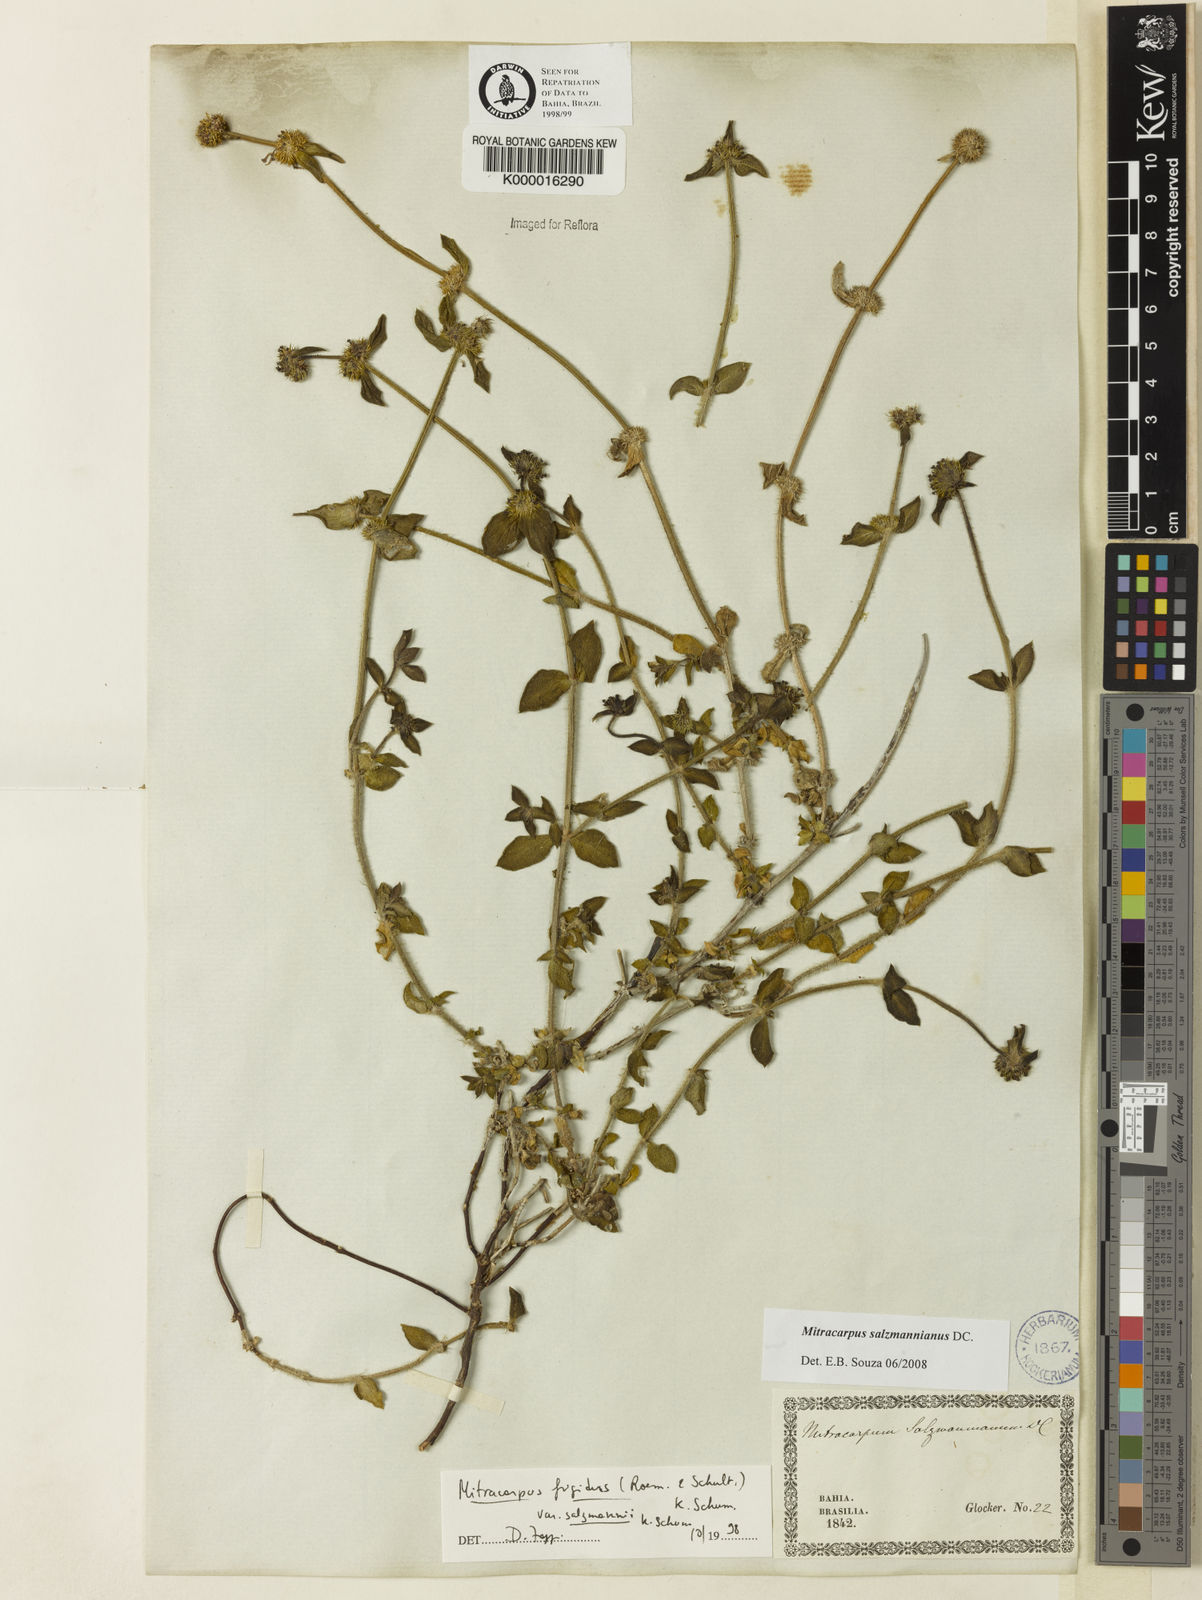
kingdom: Plantae
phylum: Tracheophyta
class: Magnoliopsida
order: Gentianales
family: Rubiaceae
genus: Mitracarpus
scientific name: Mitracarpus salzmannianus
